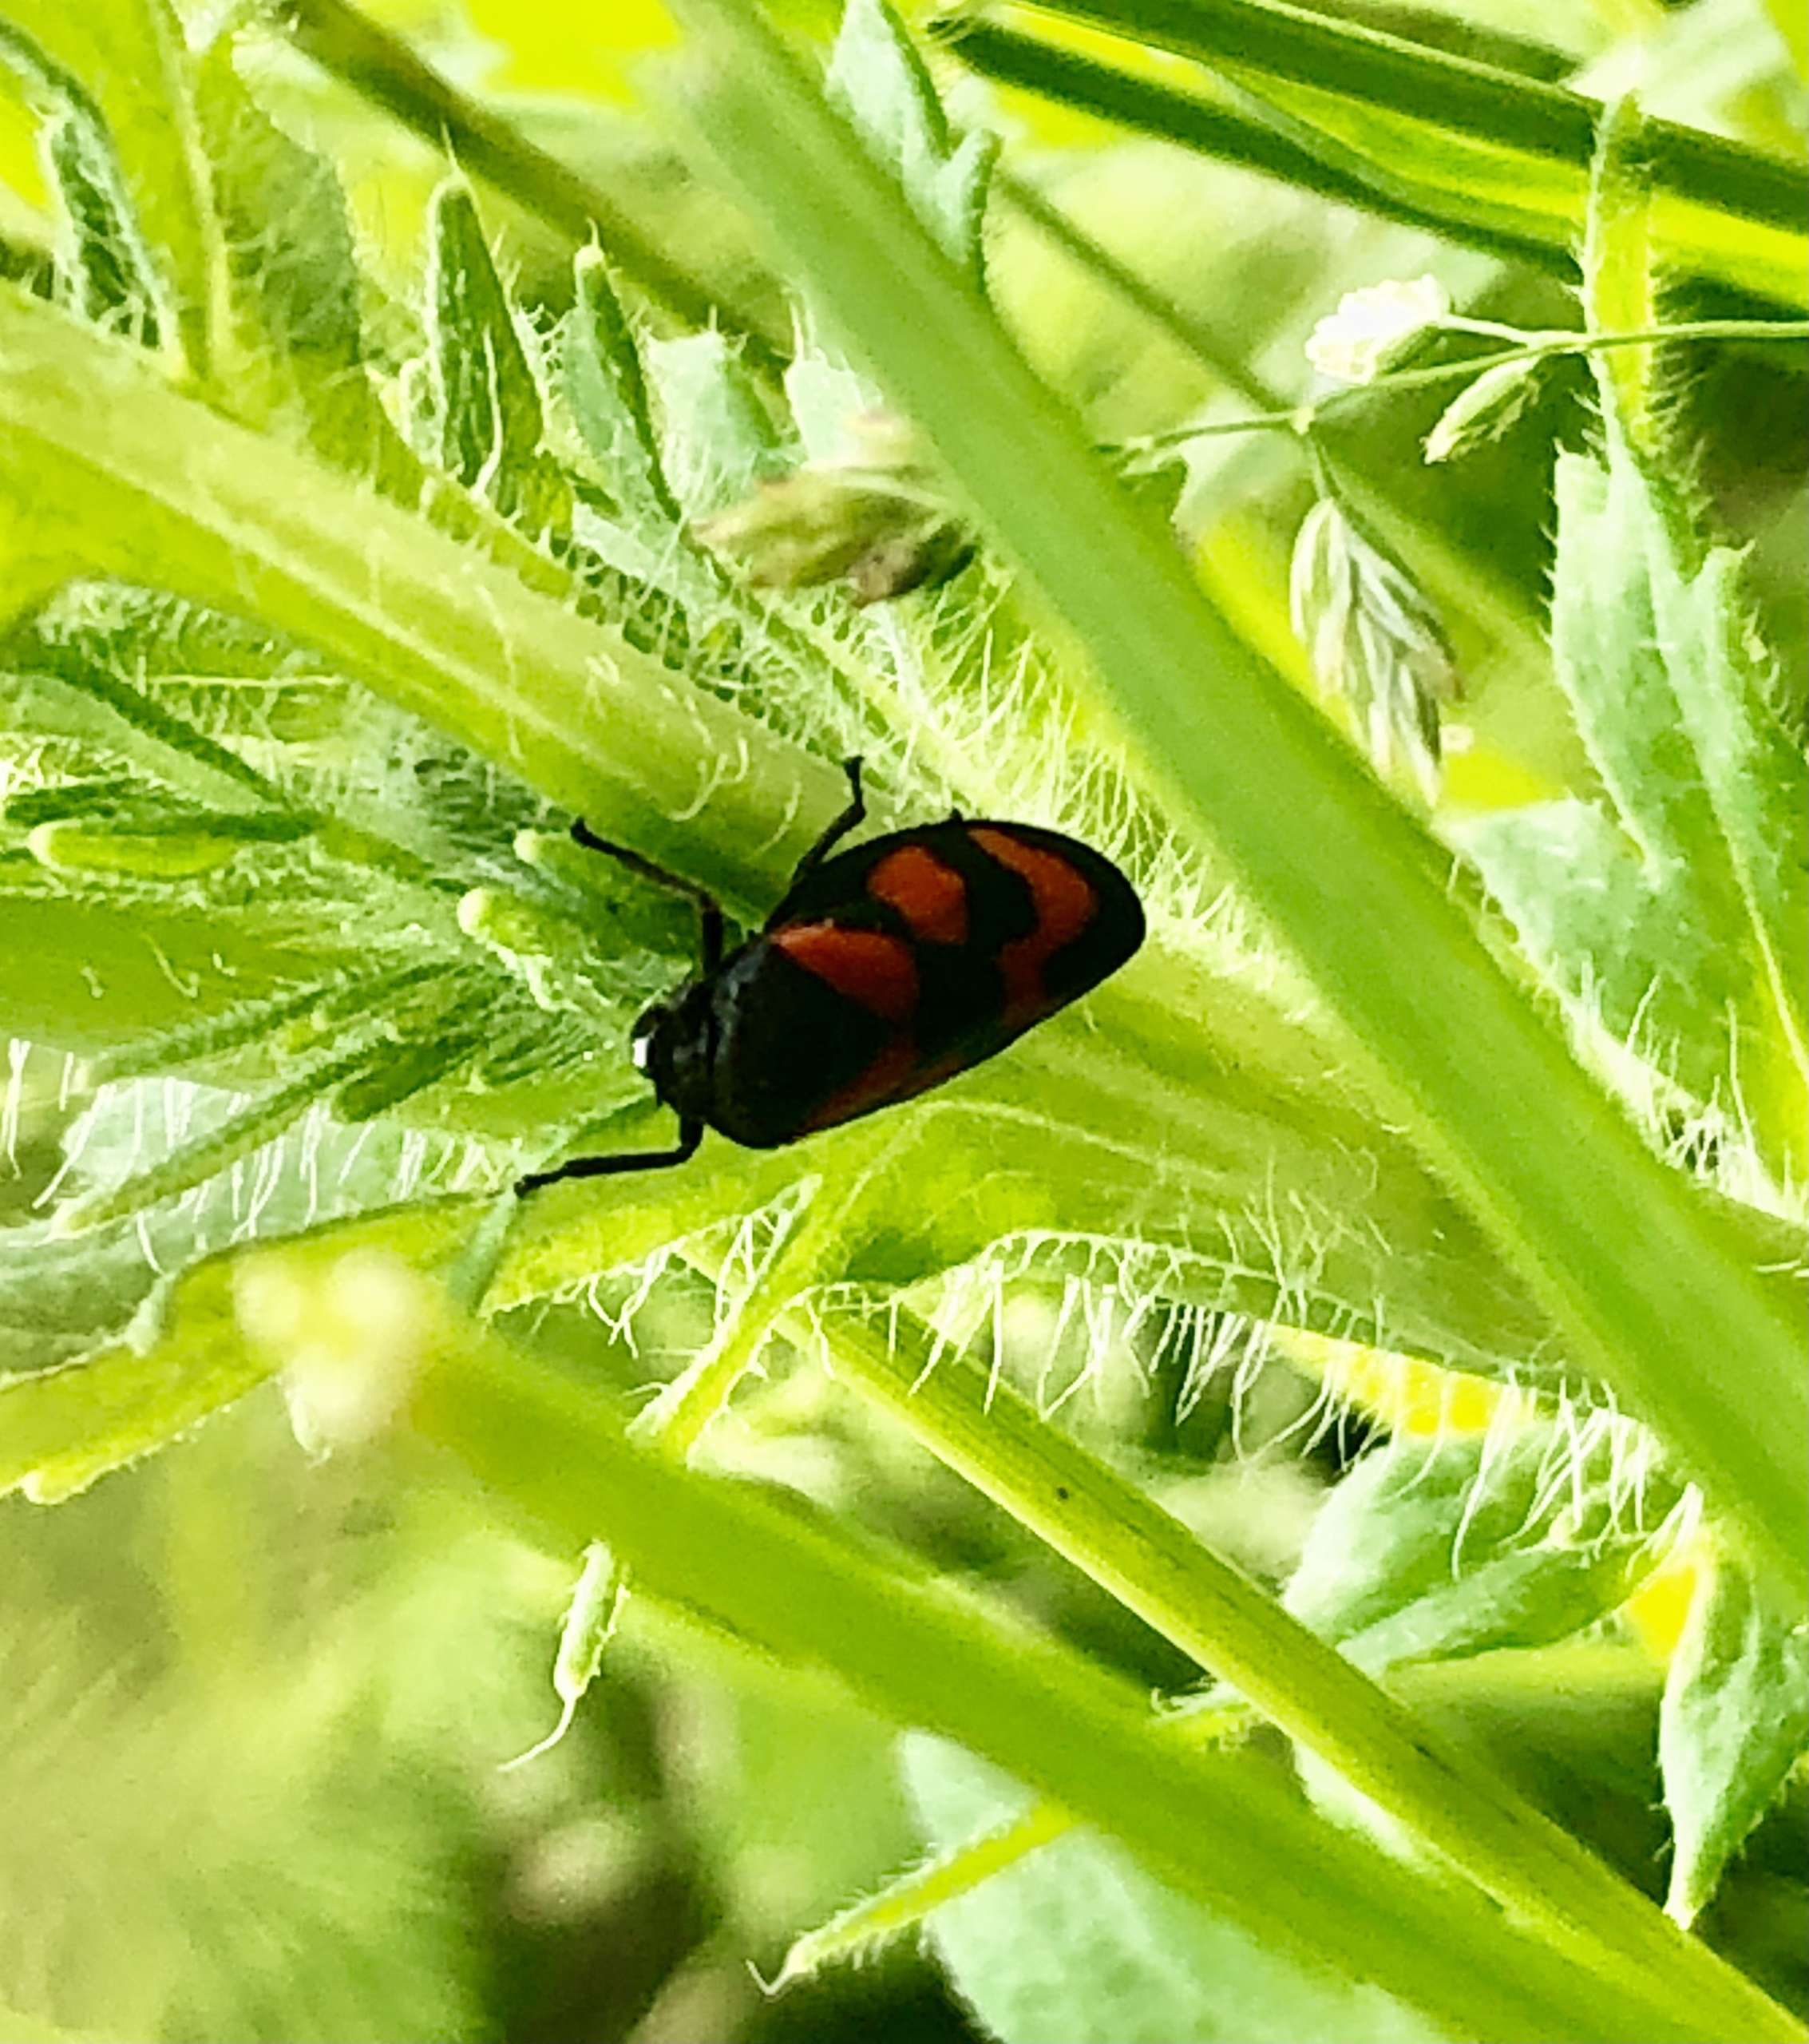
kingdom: Animalia
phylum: Arthropoda
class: Insecta
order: Hemiptera
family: Cercopidae
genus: Cercopis
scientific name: Cercopis vulnerata
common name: Blodcikade
